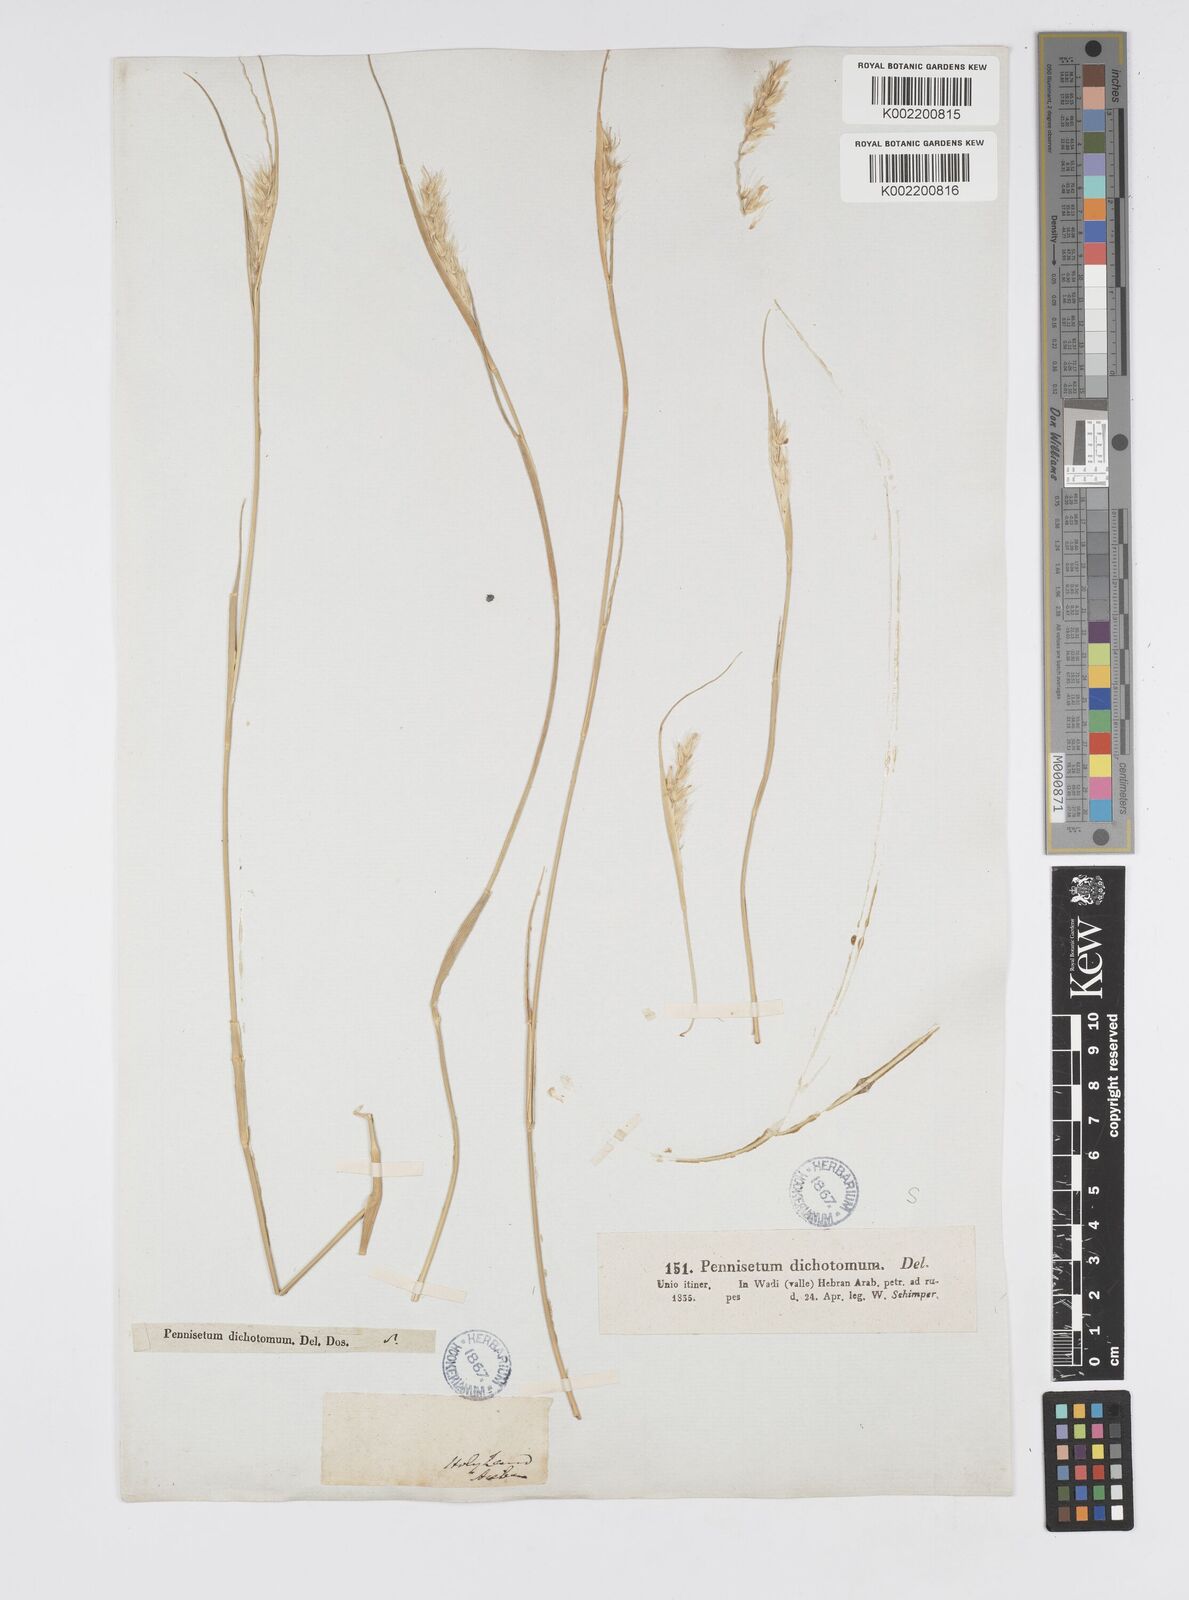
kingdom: Plantae
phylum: Tracheophyta
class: Liliopsida
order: Poales
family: Poaceae
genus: Cenchrus
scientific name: Cenchrus divisus
